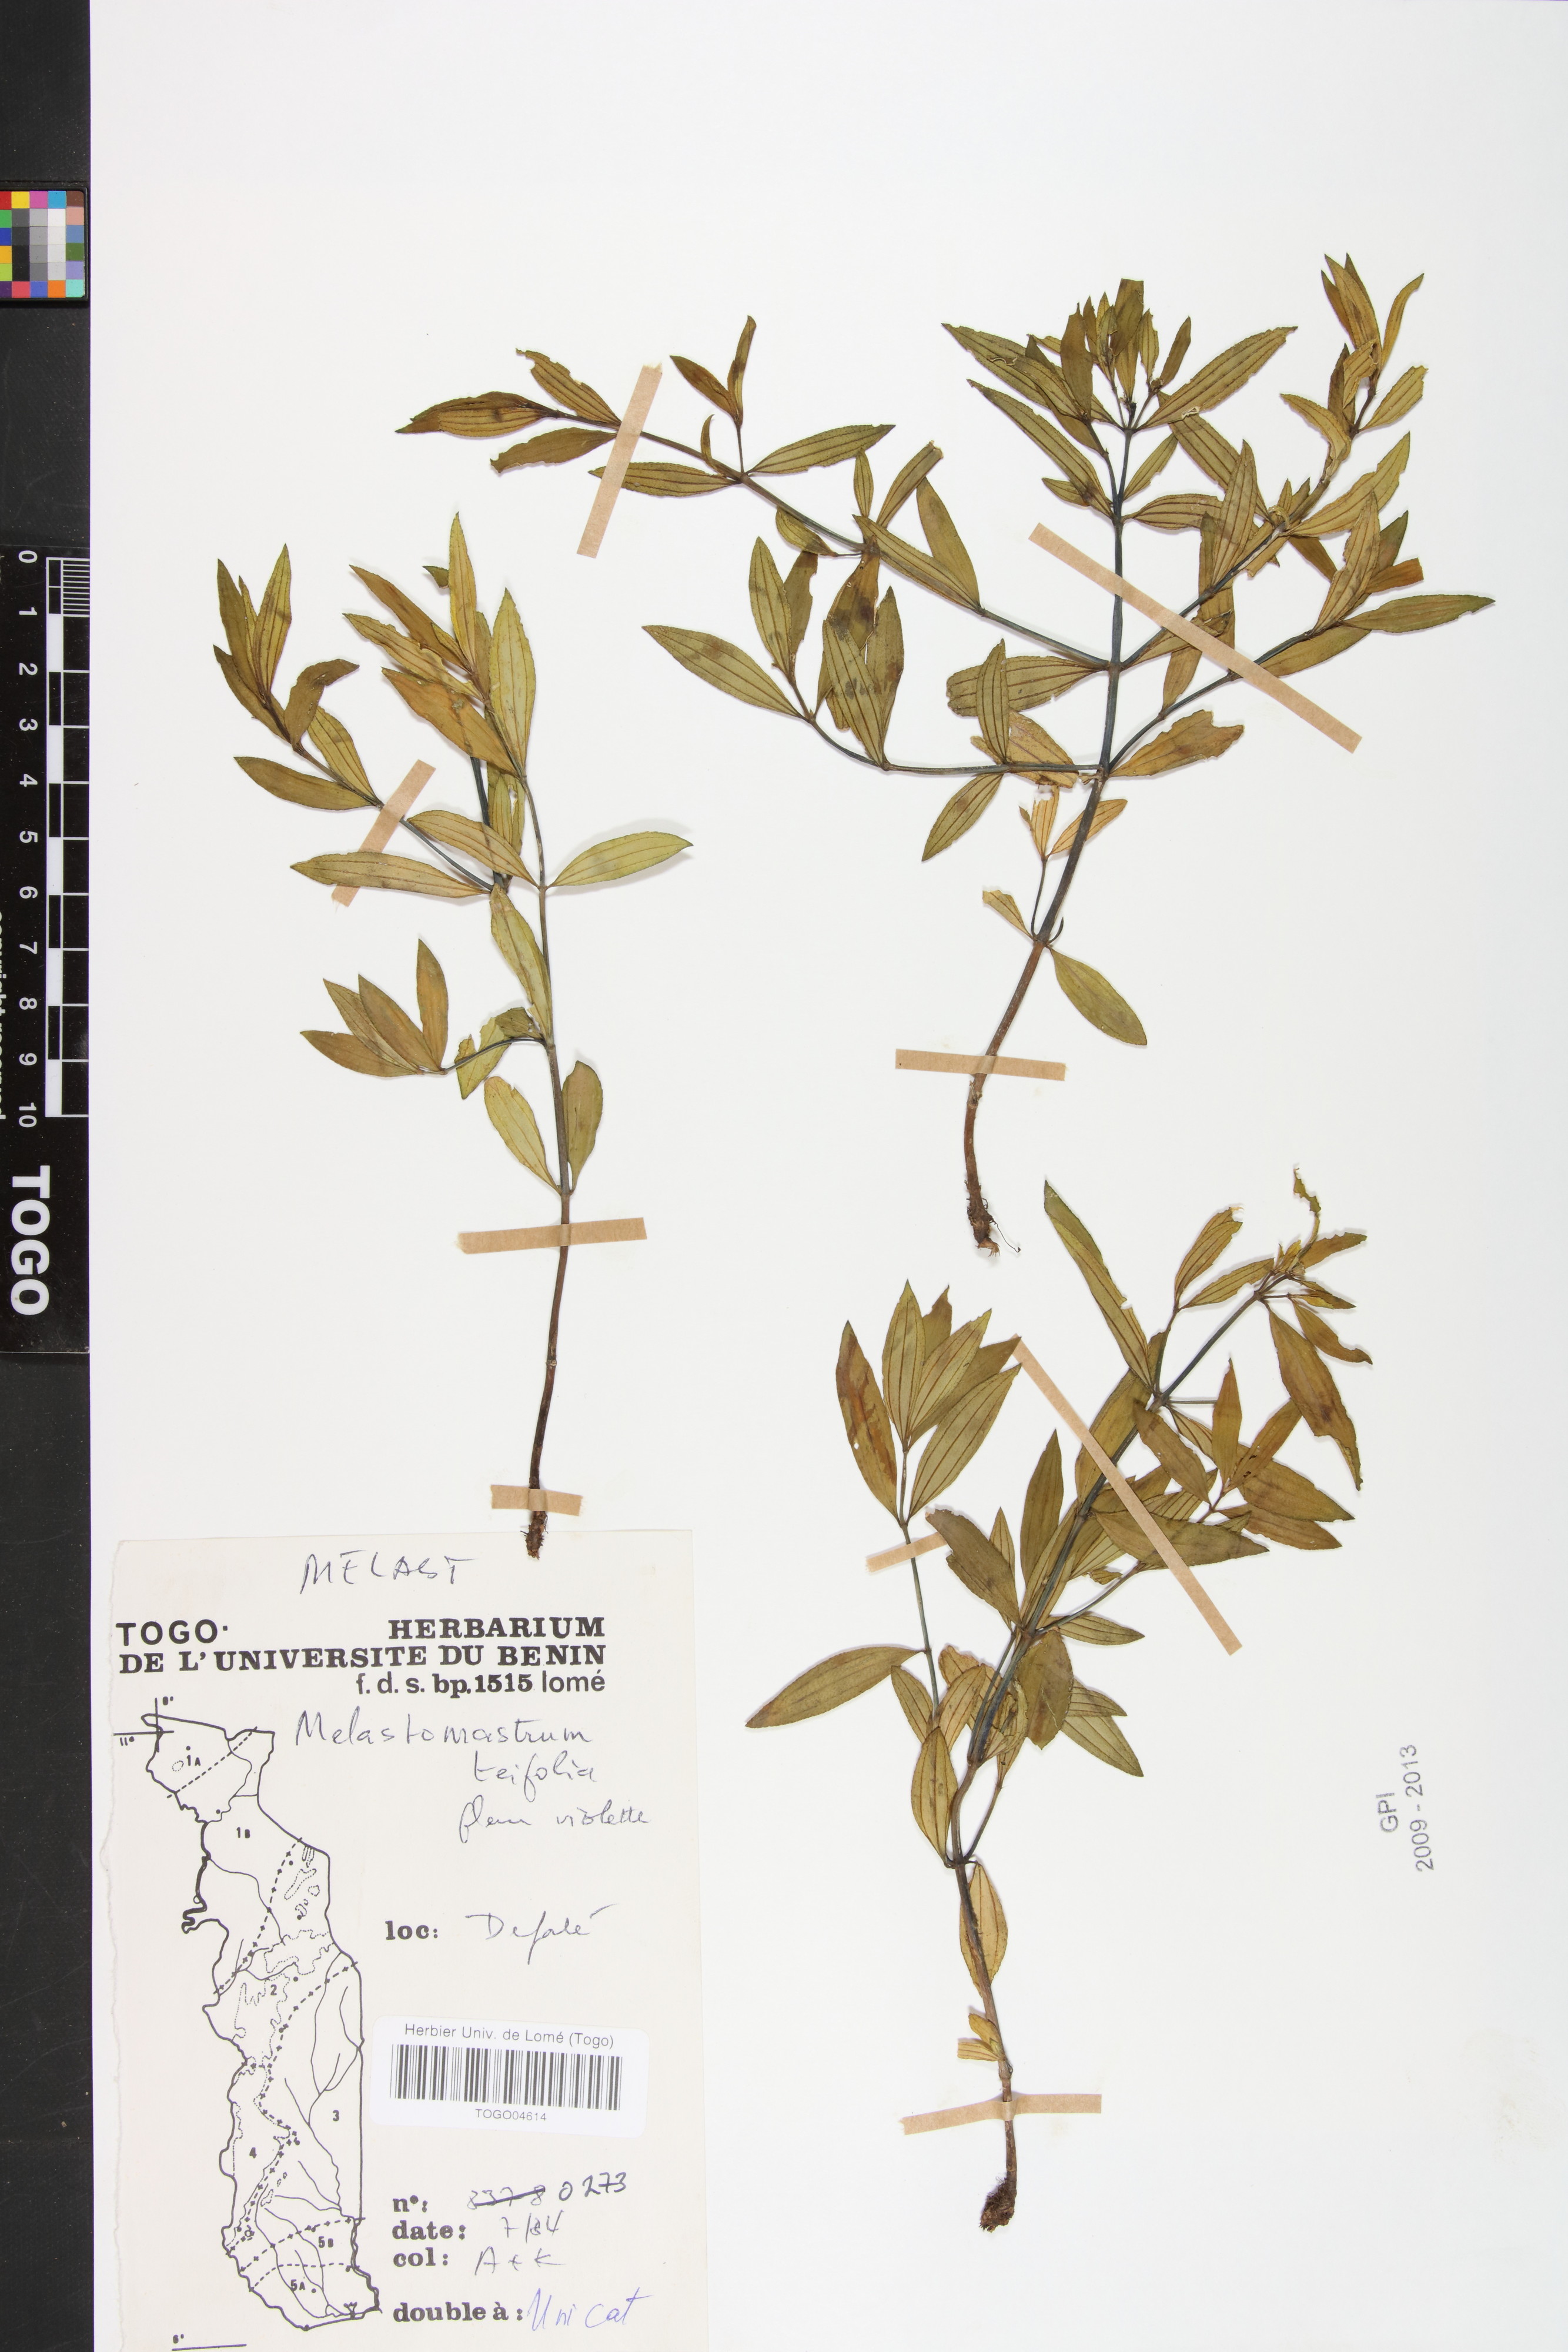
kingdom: Plantae
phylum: Tracheophyta
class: Magnoliopsida
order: Myrtales
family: Melastomataceae
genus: Melastomastrum
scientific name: Melastomastrum theifolium
